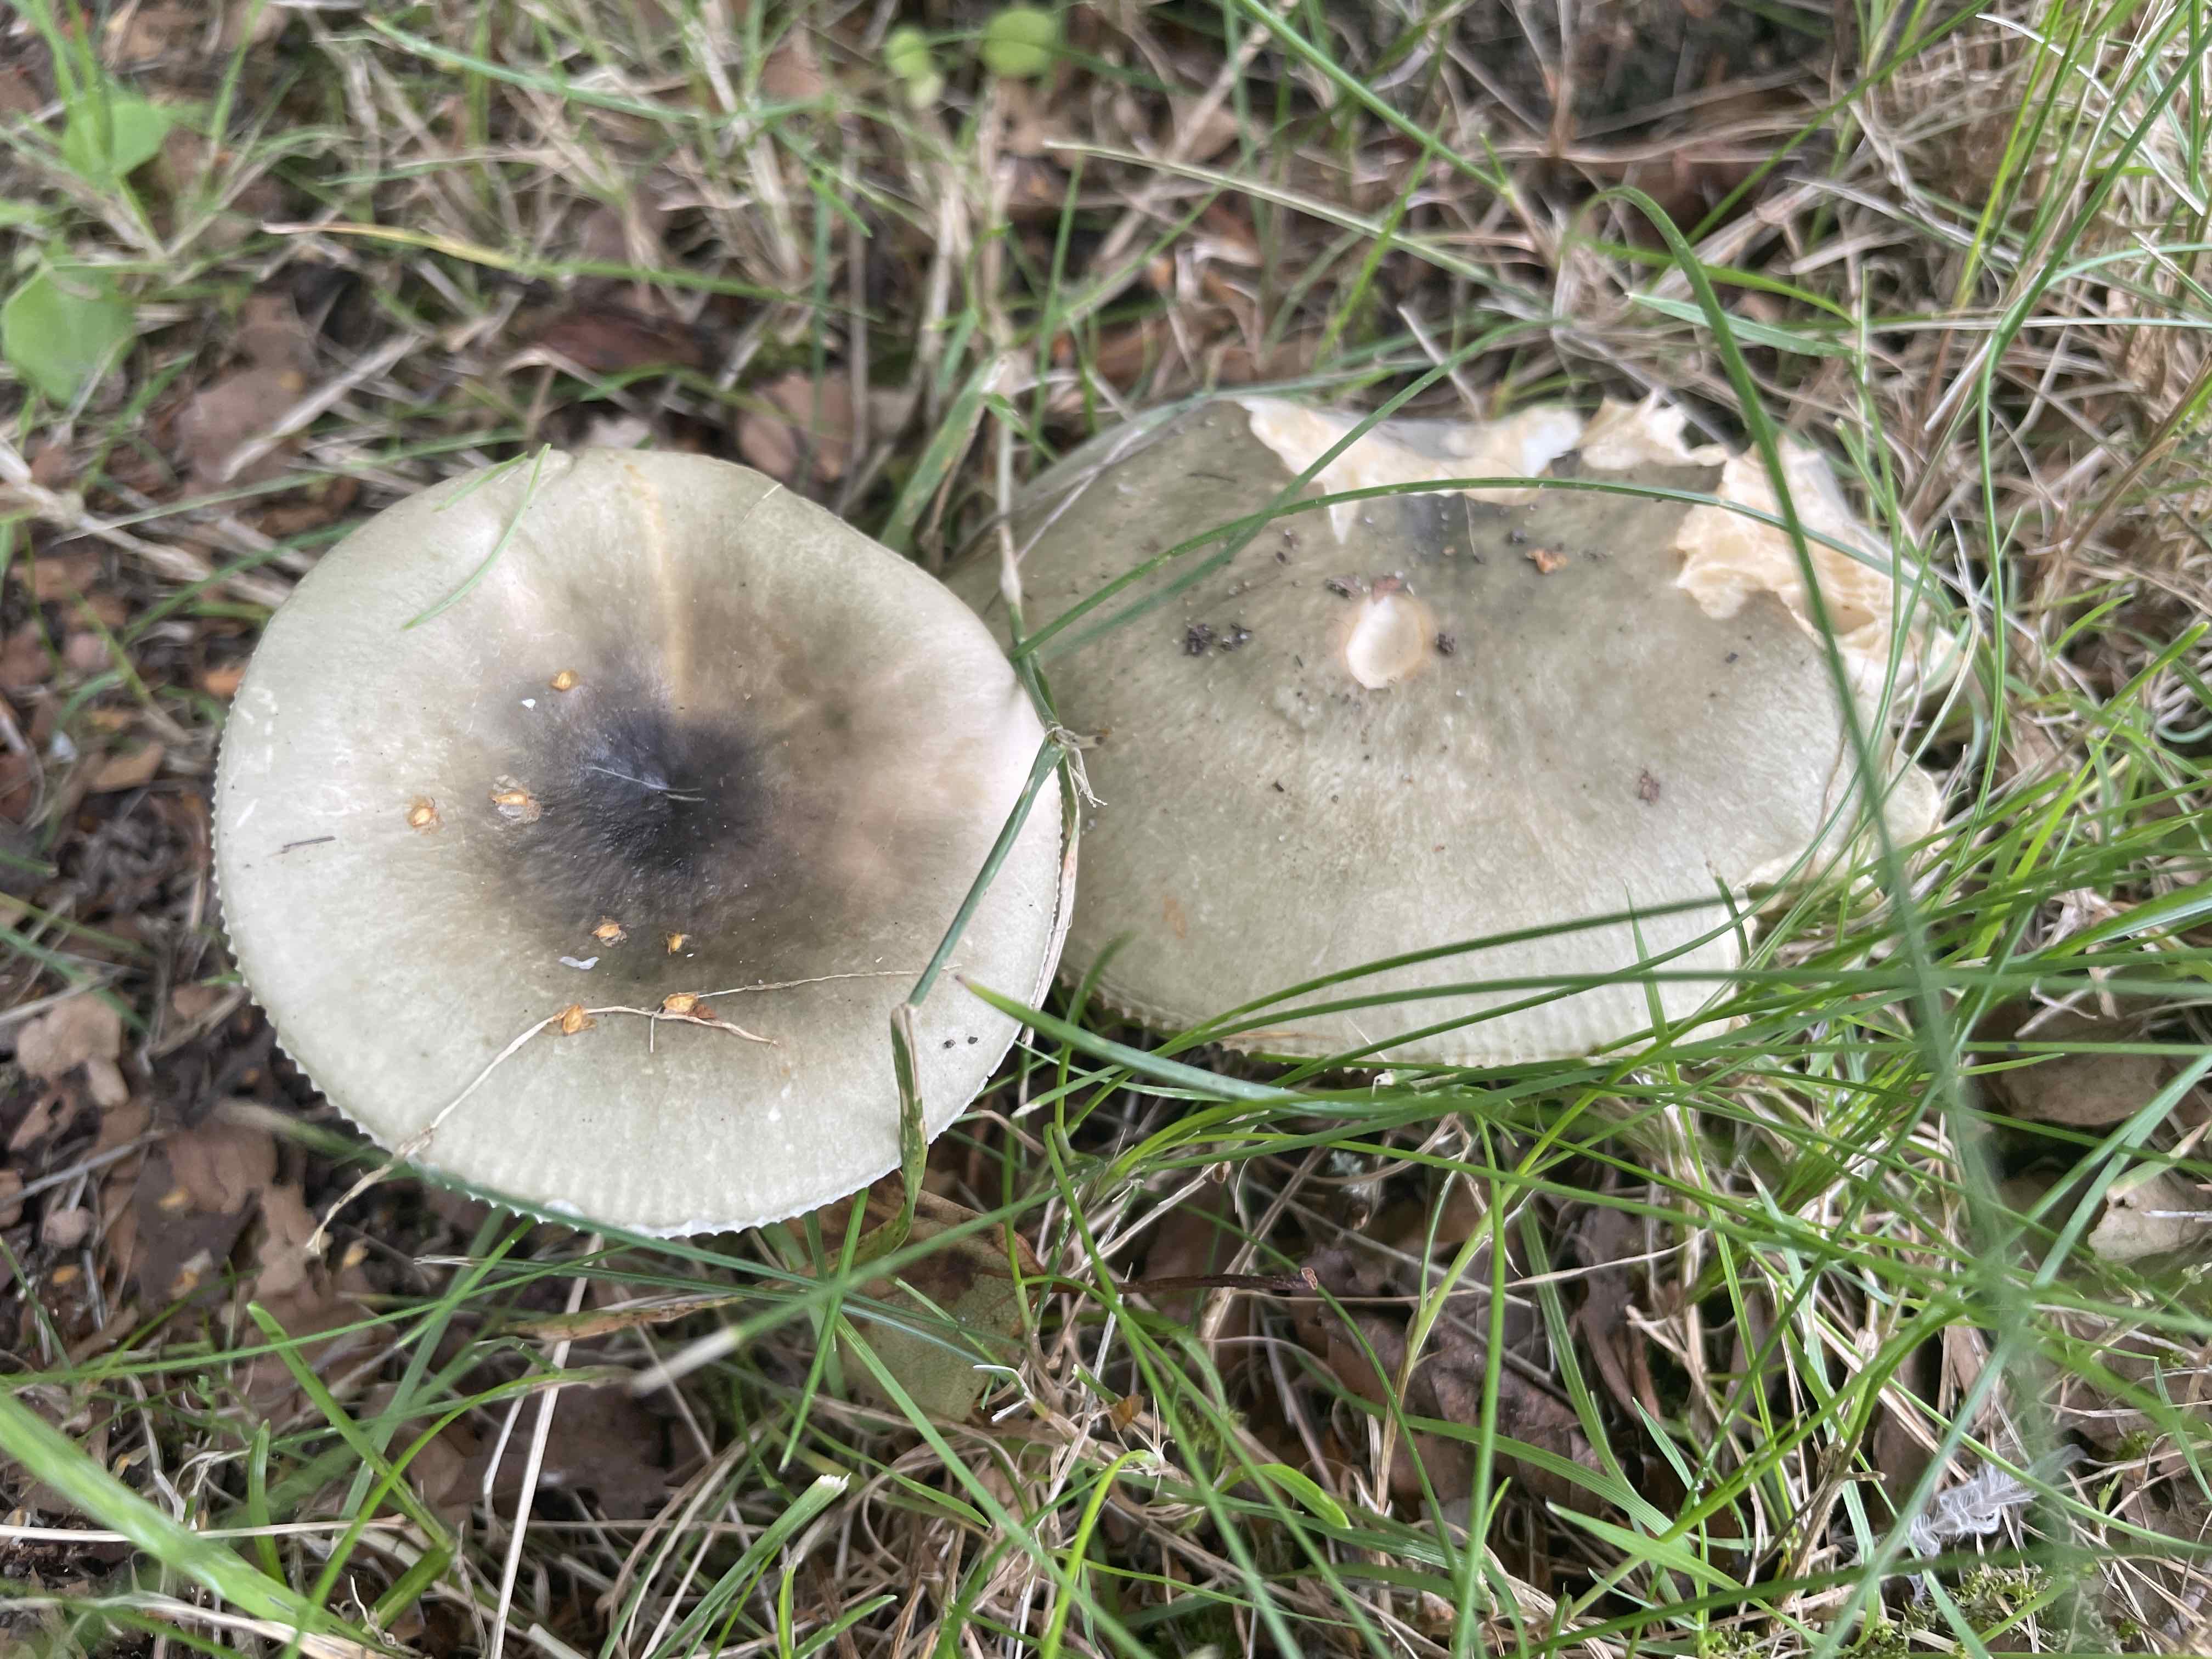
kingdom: Fungi
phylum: Basidiomycota
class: Agaricomycetes
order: Russulales
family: Russulaceae
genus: Russula
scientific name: Russula aeruginea
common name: græsgrøn skørhat
